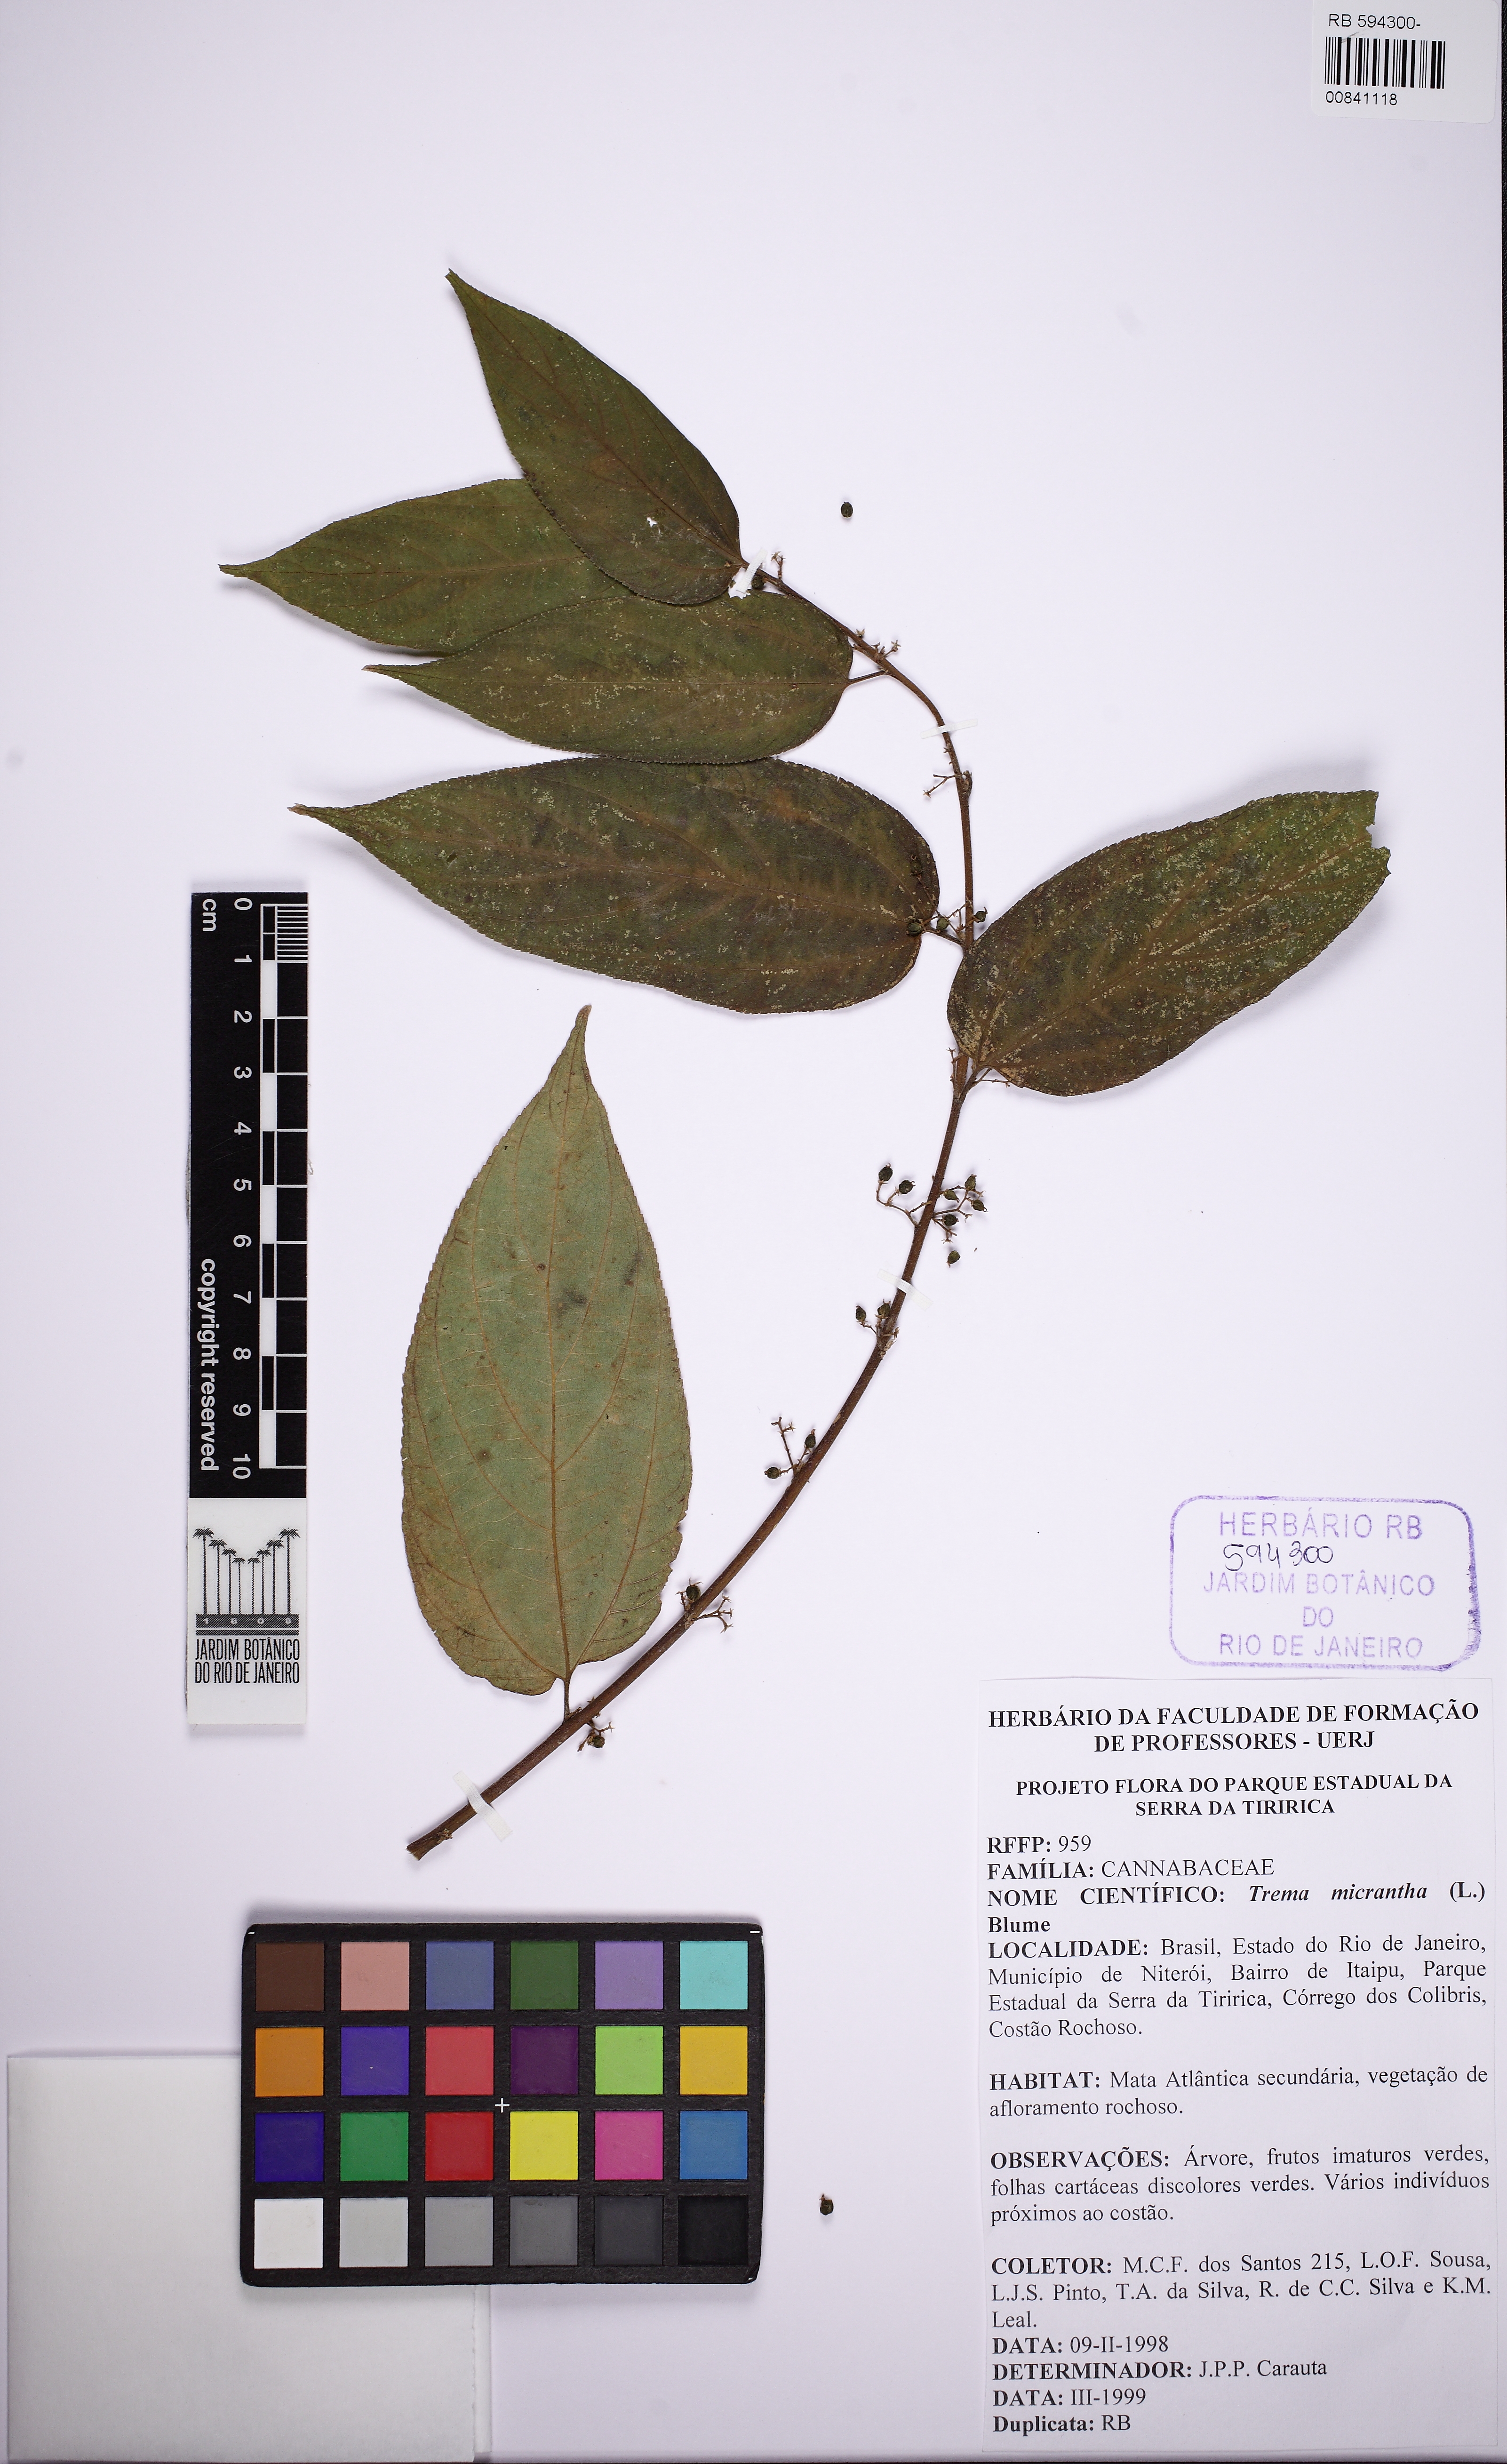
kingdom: Plantae
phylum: Tracheophyta
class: Magnoliopsida
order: Rosales
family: Cannabaceae
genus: Trema
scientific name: Trema micranthum
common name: Jamaican nettletree
